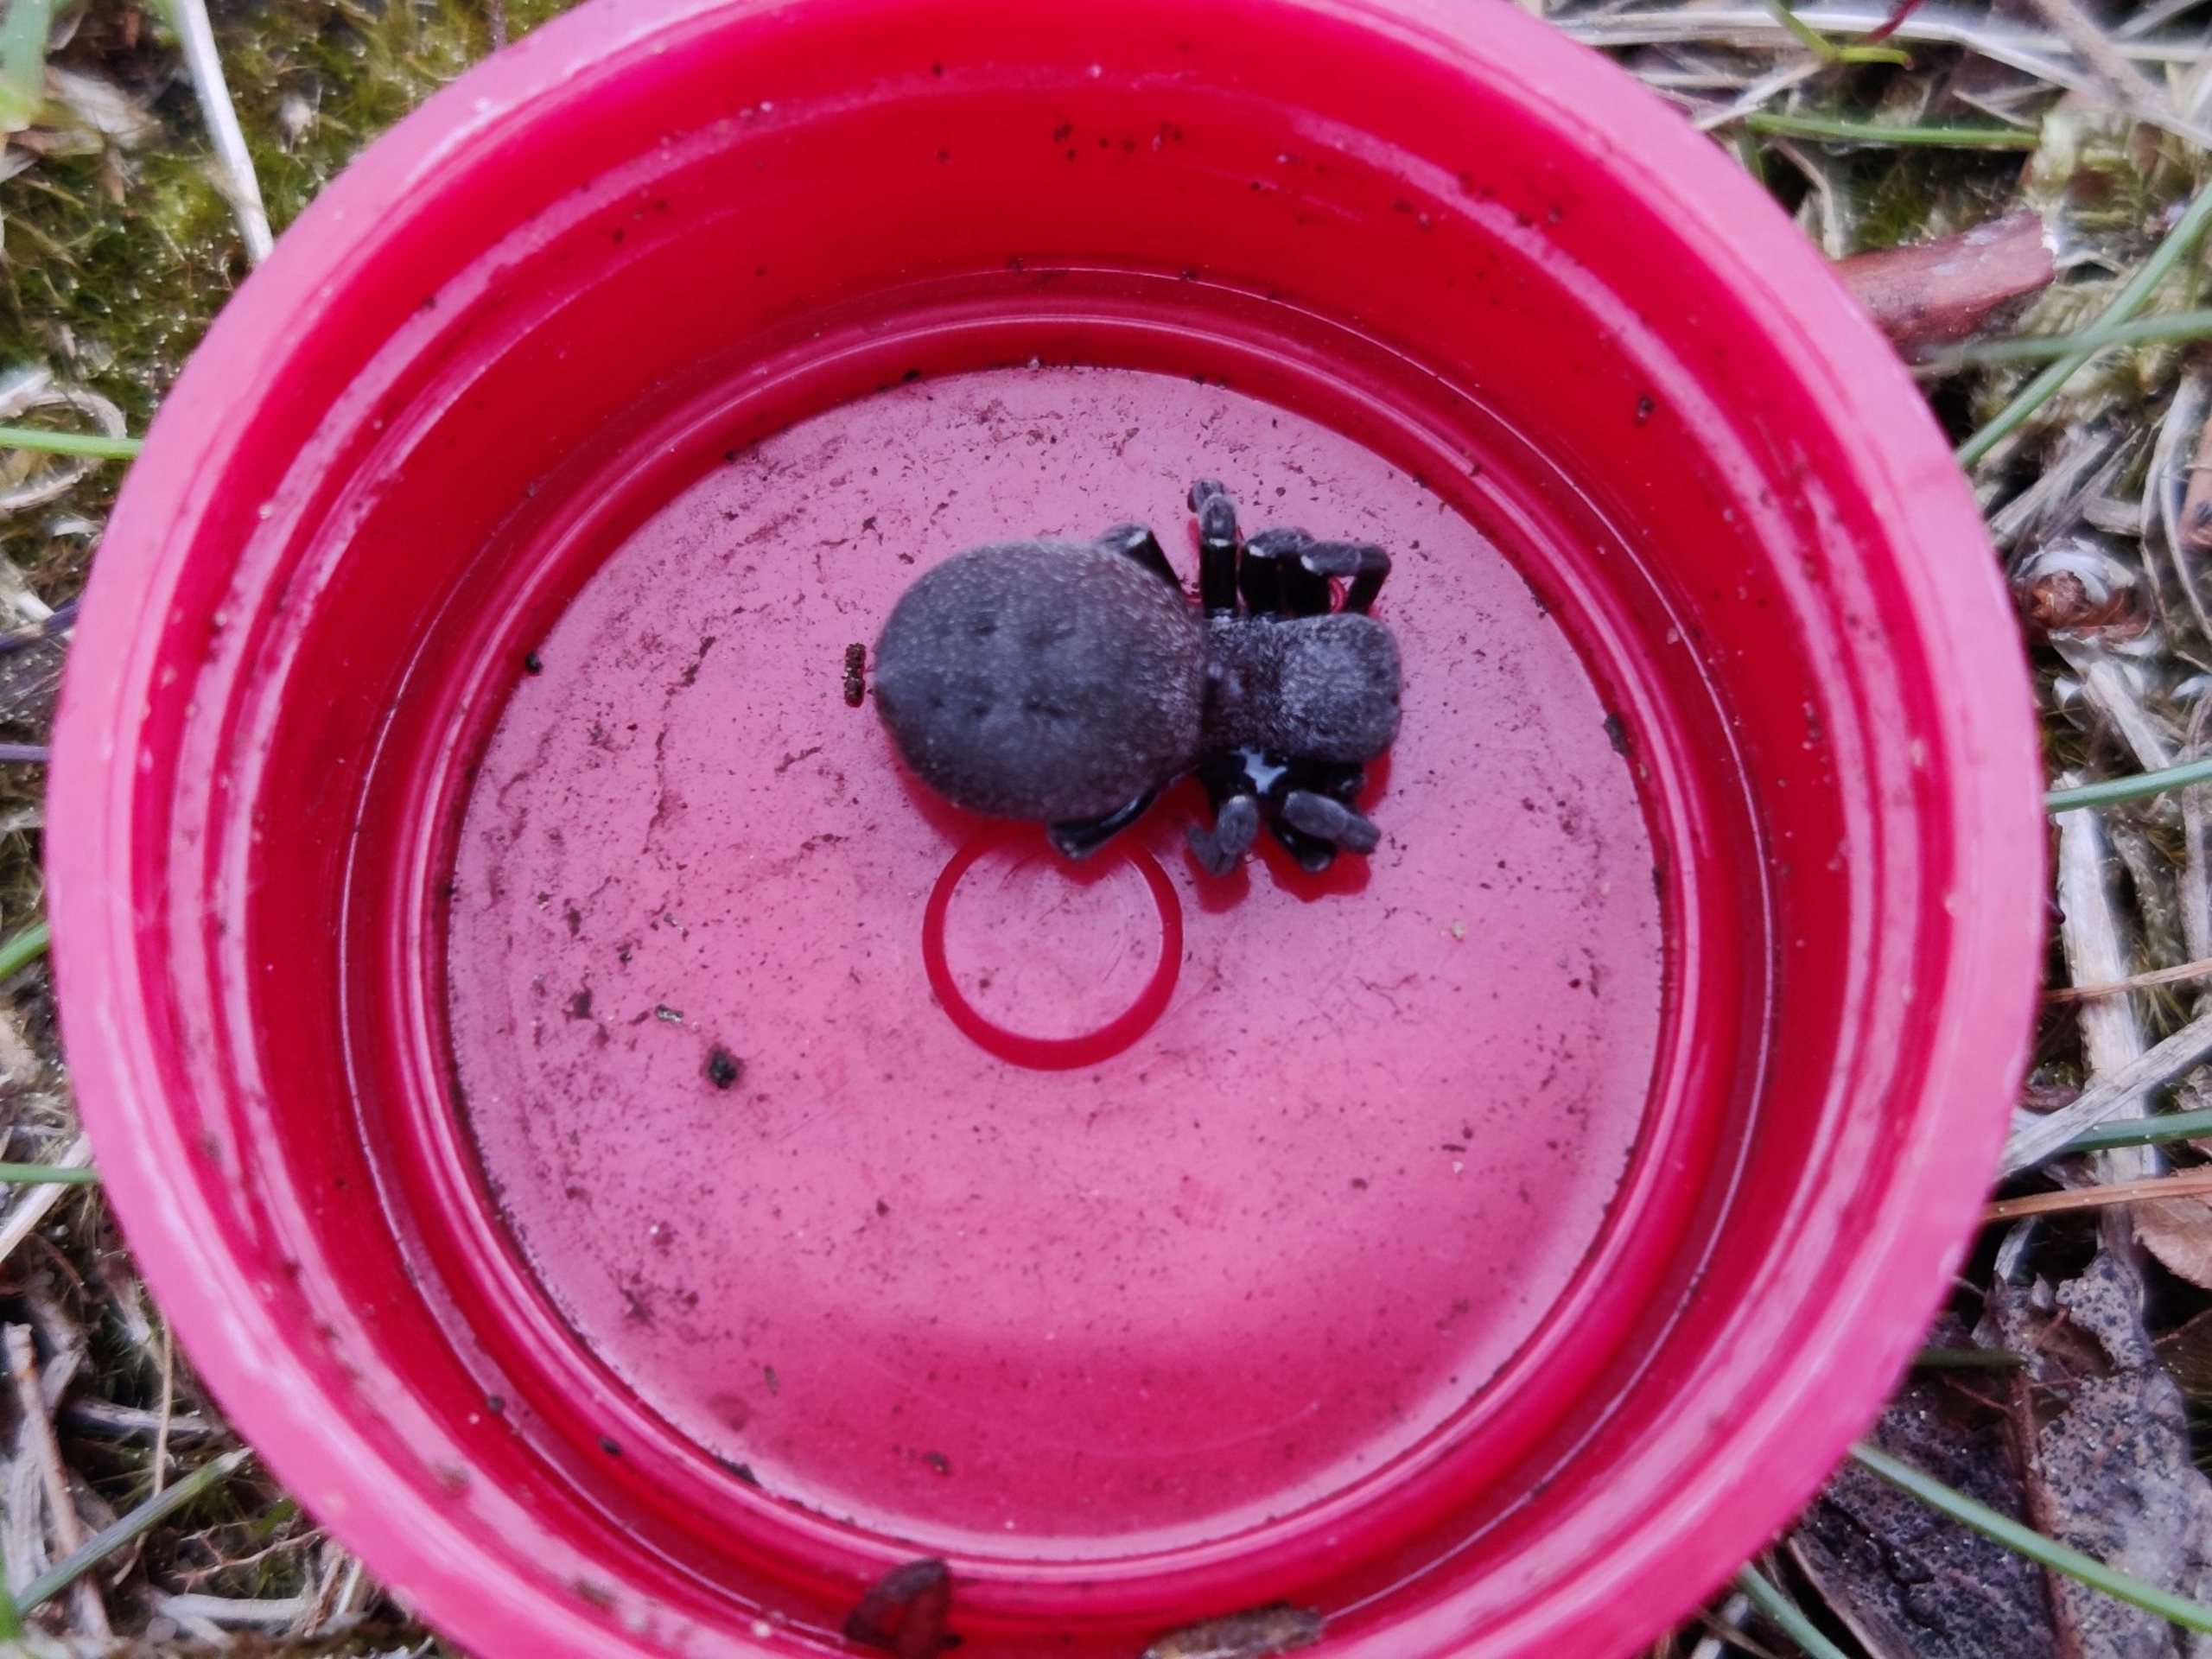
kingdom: Animalia
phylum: Arthropoda
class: Arachnida
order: Araneae
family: Eresidae
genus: Eresus
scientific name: Eresus sandaliatus
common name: Mariehøneedderkop
